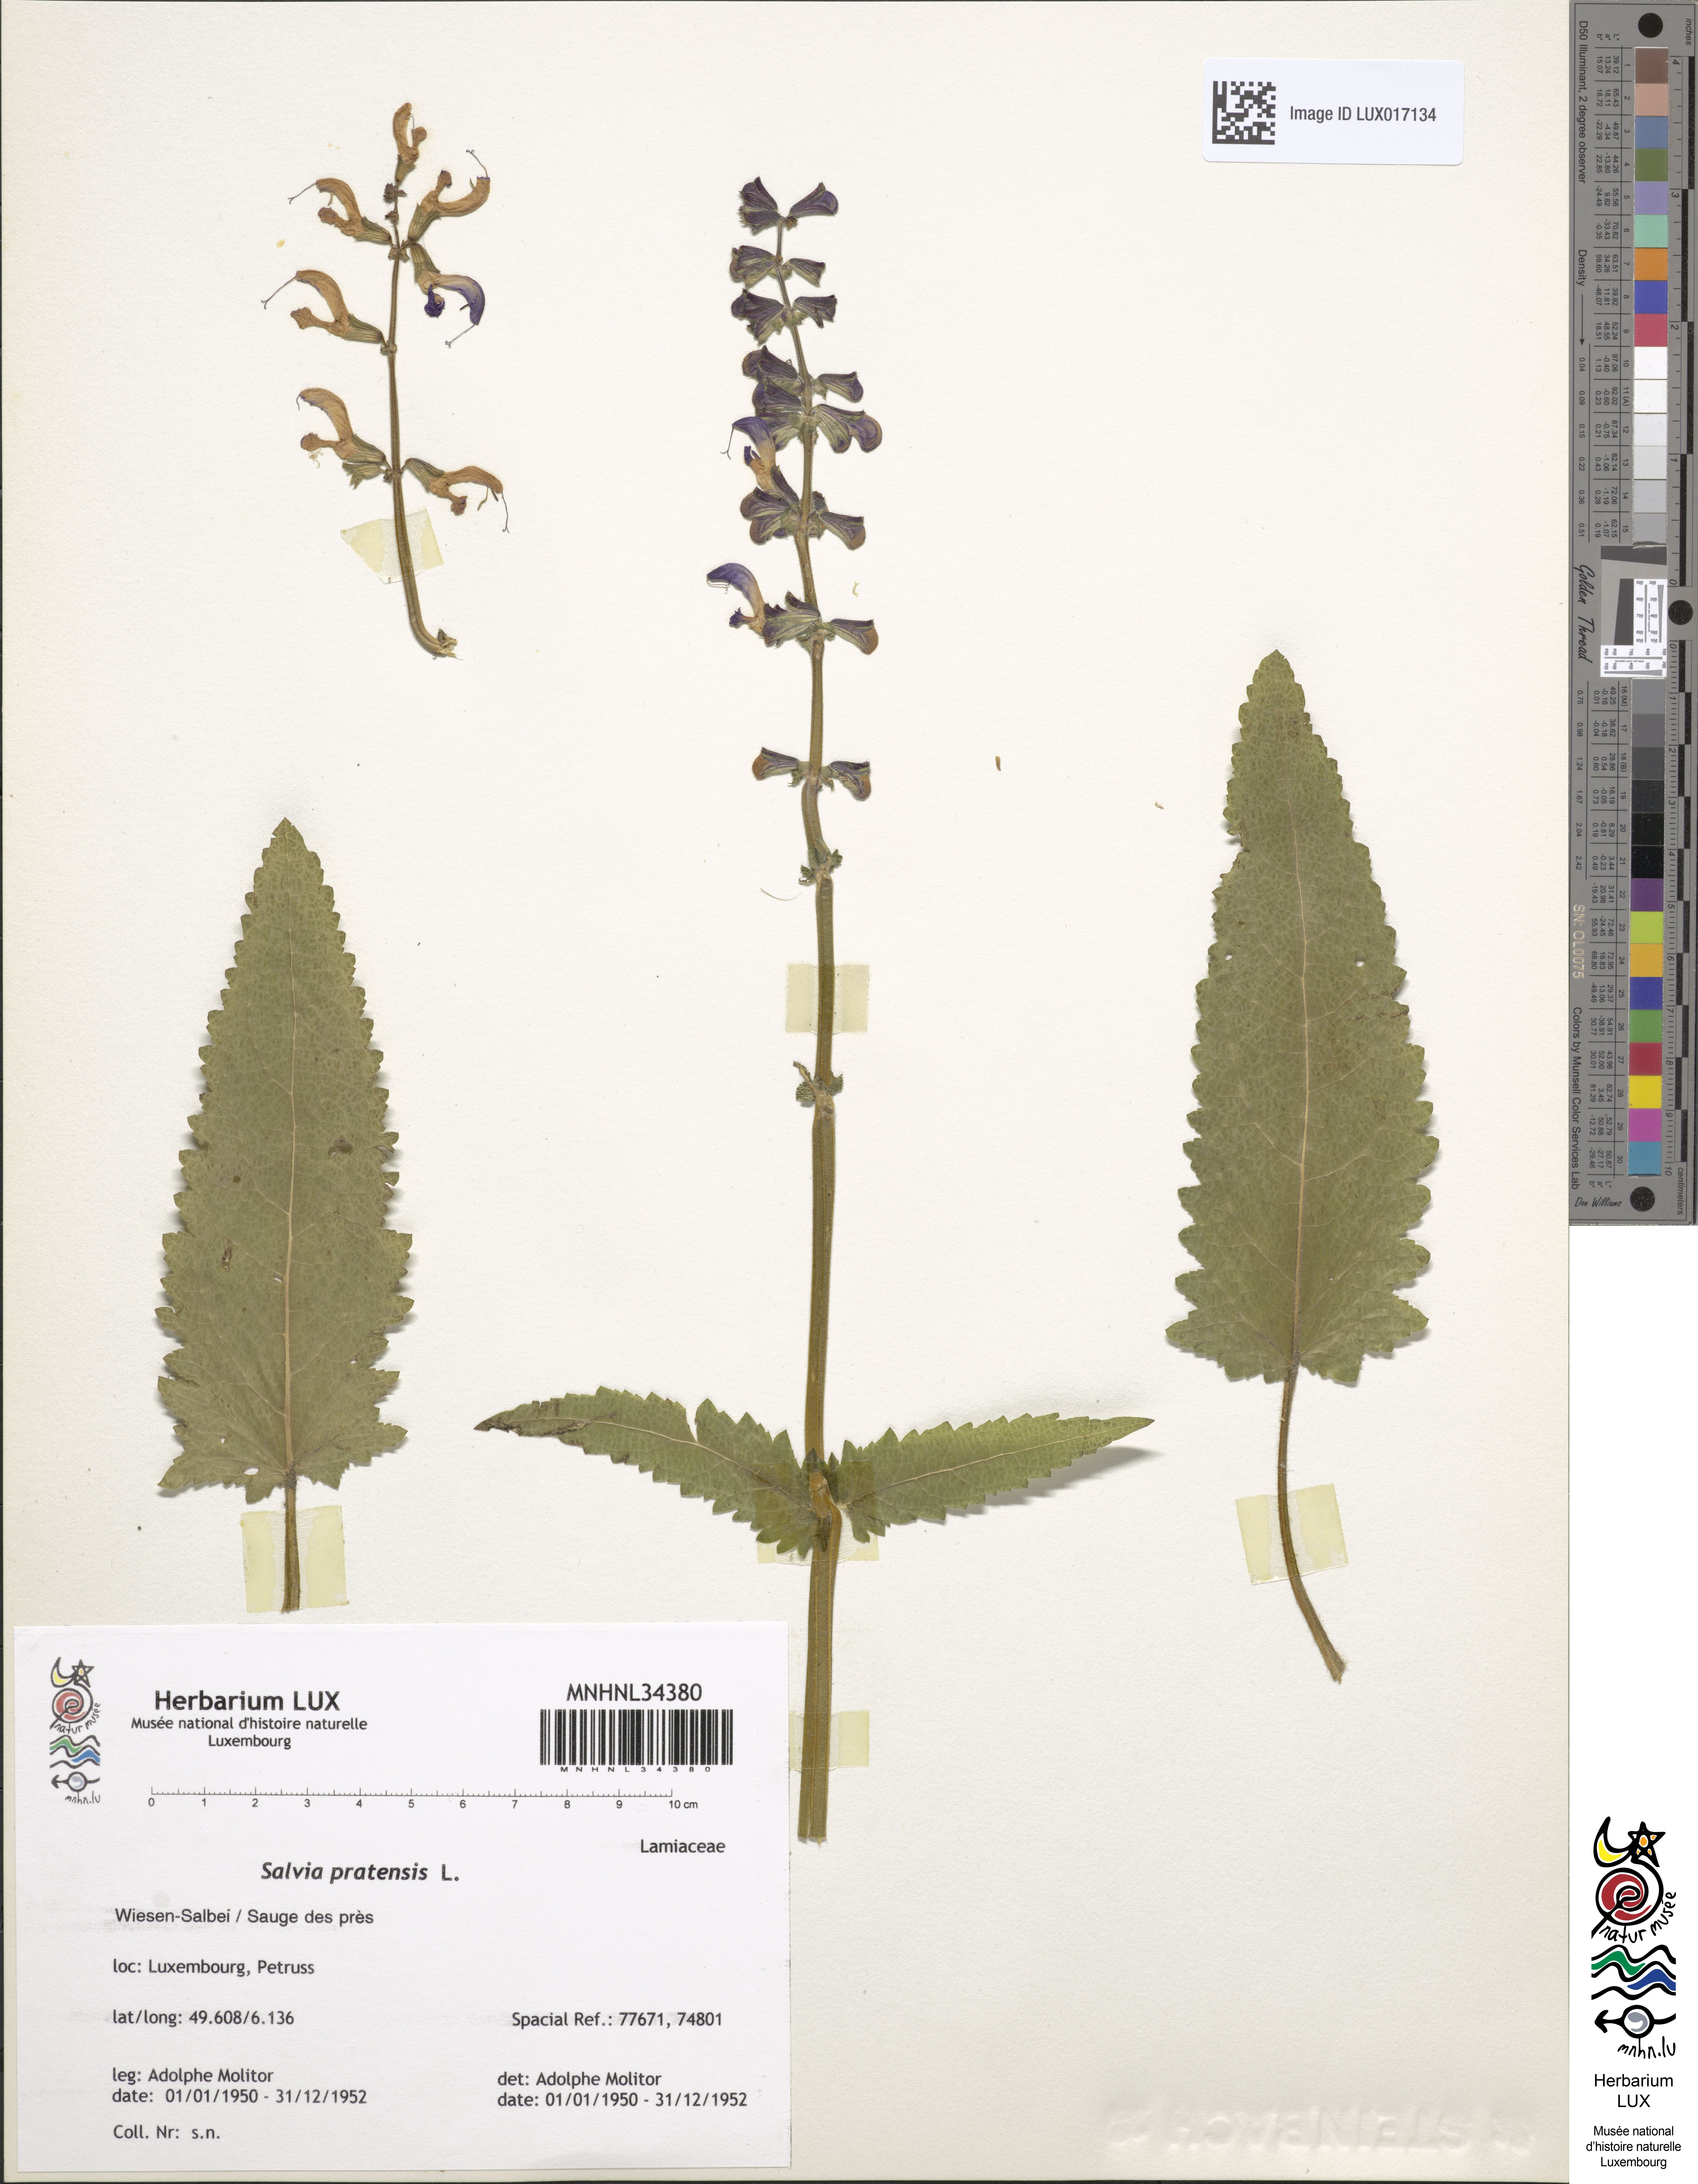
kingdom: Plantae
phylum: Tracheophyta
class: Magnoliopsida
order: Lamiales
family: Lamiaceae
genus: Salvia
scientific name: Salvia pratensis
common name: Meadow sage
